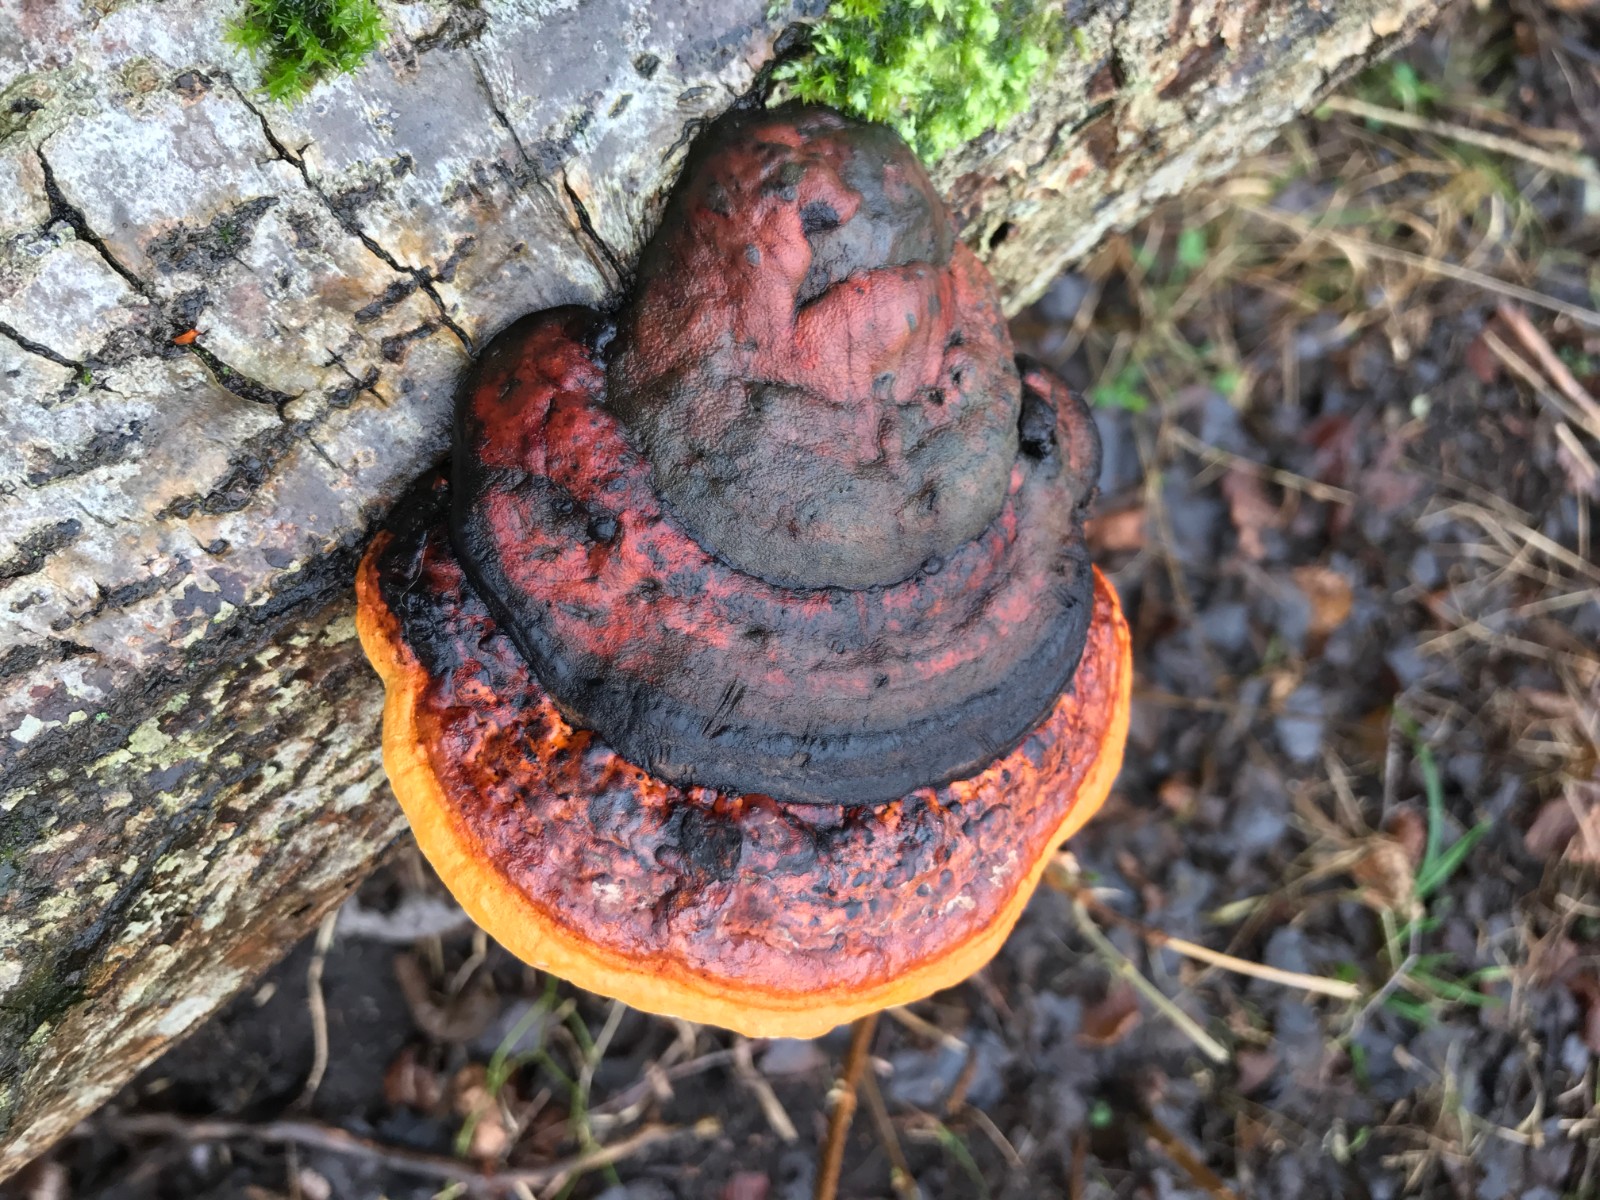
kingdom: Fungi
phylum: Basidiomycota
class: Agaricomycetes
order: Polyporales
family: Fomitopsidaceae
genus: Fomitopsis
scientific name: Fomitopsis pinicola
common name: randbæltet hovporesvamp
